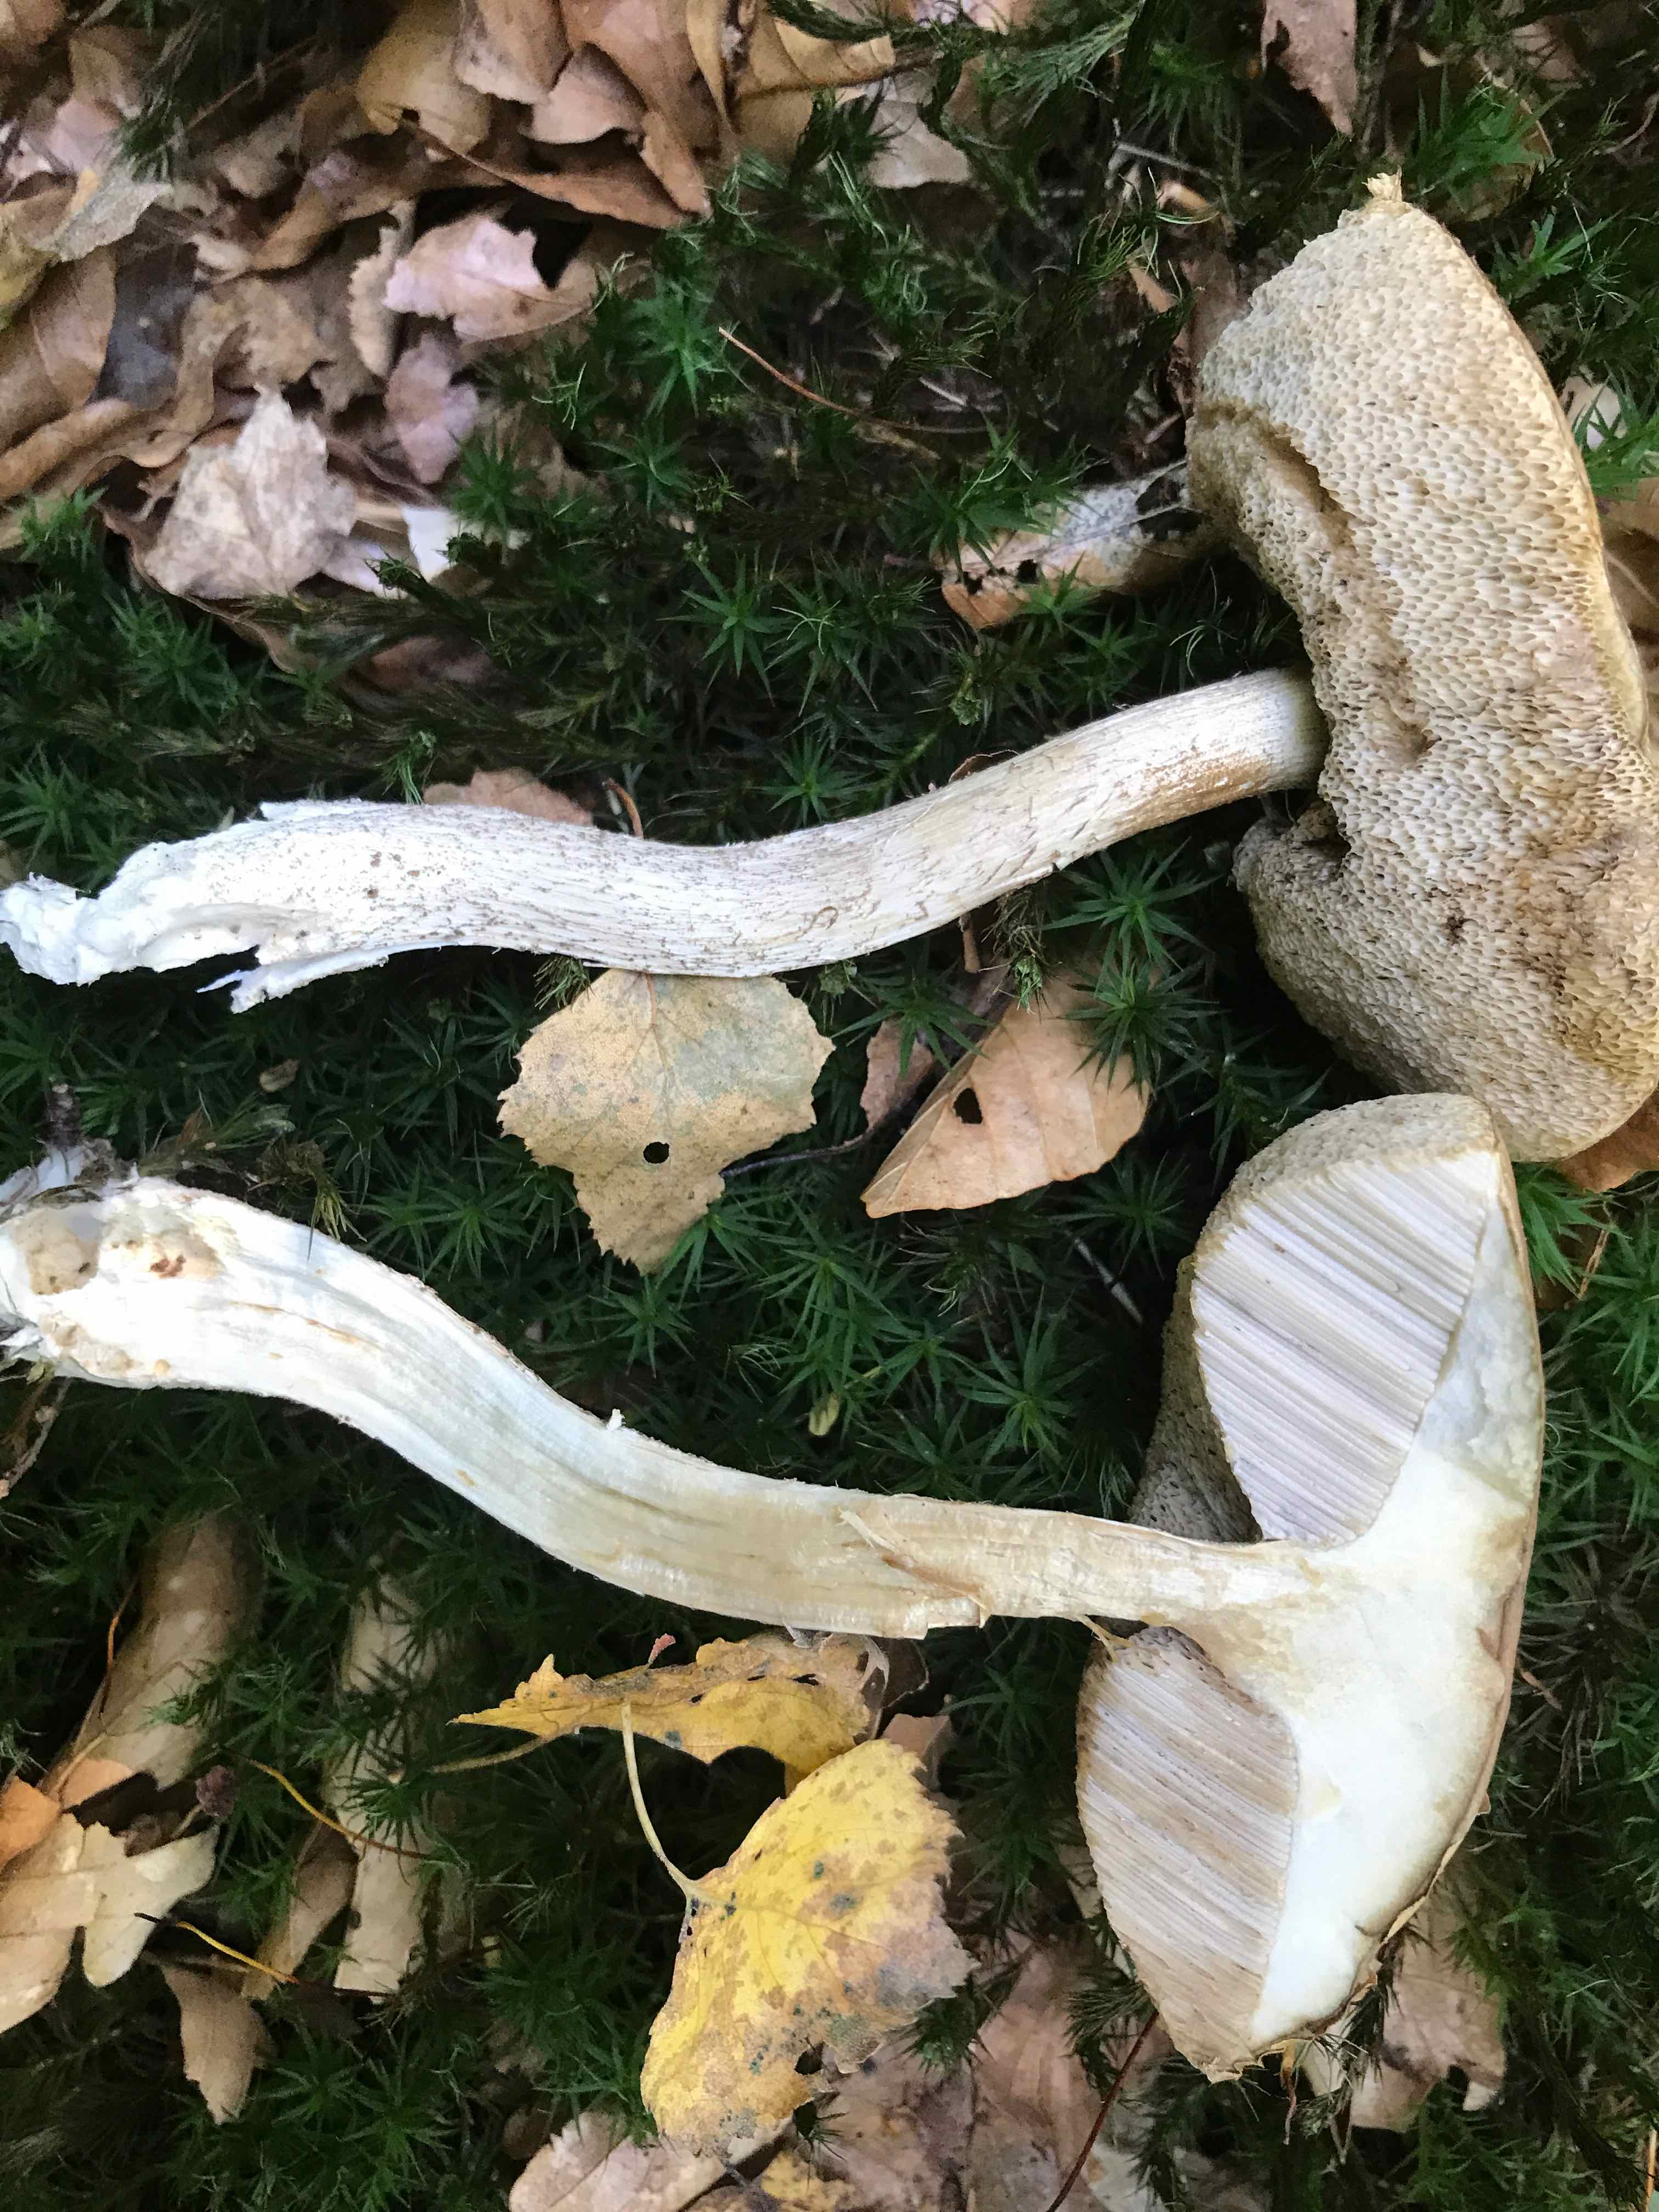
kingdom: Fungi
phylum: Basidiomycota
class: Agaricomycetes
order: Boletales
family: Boletaceae
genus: Leccinum
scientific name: Leccinum
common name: skælrørhat
